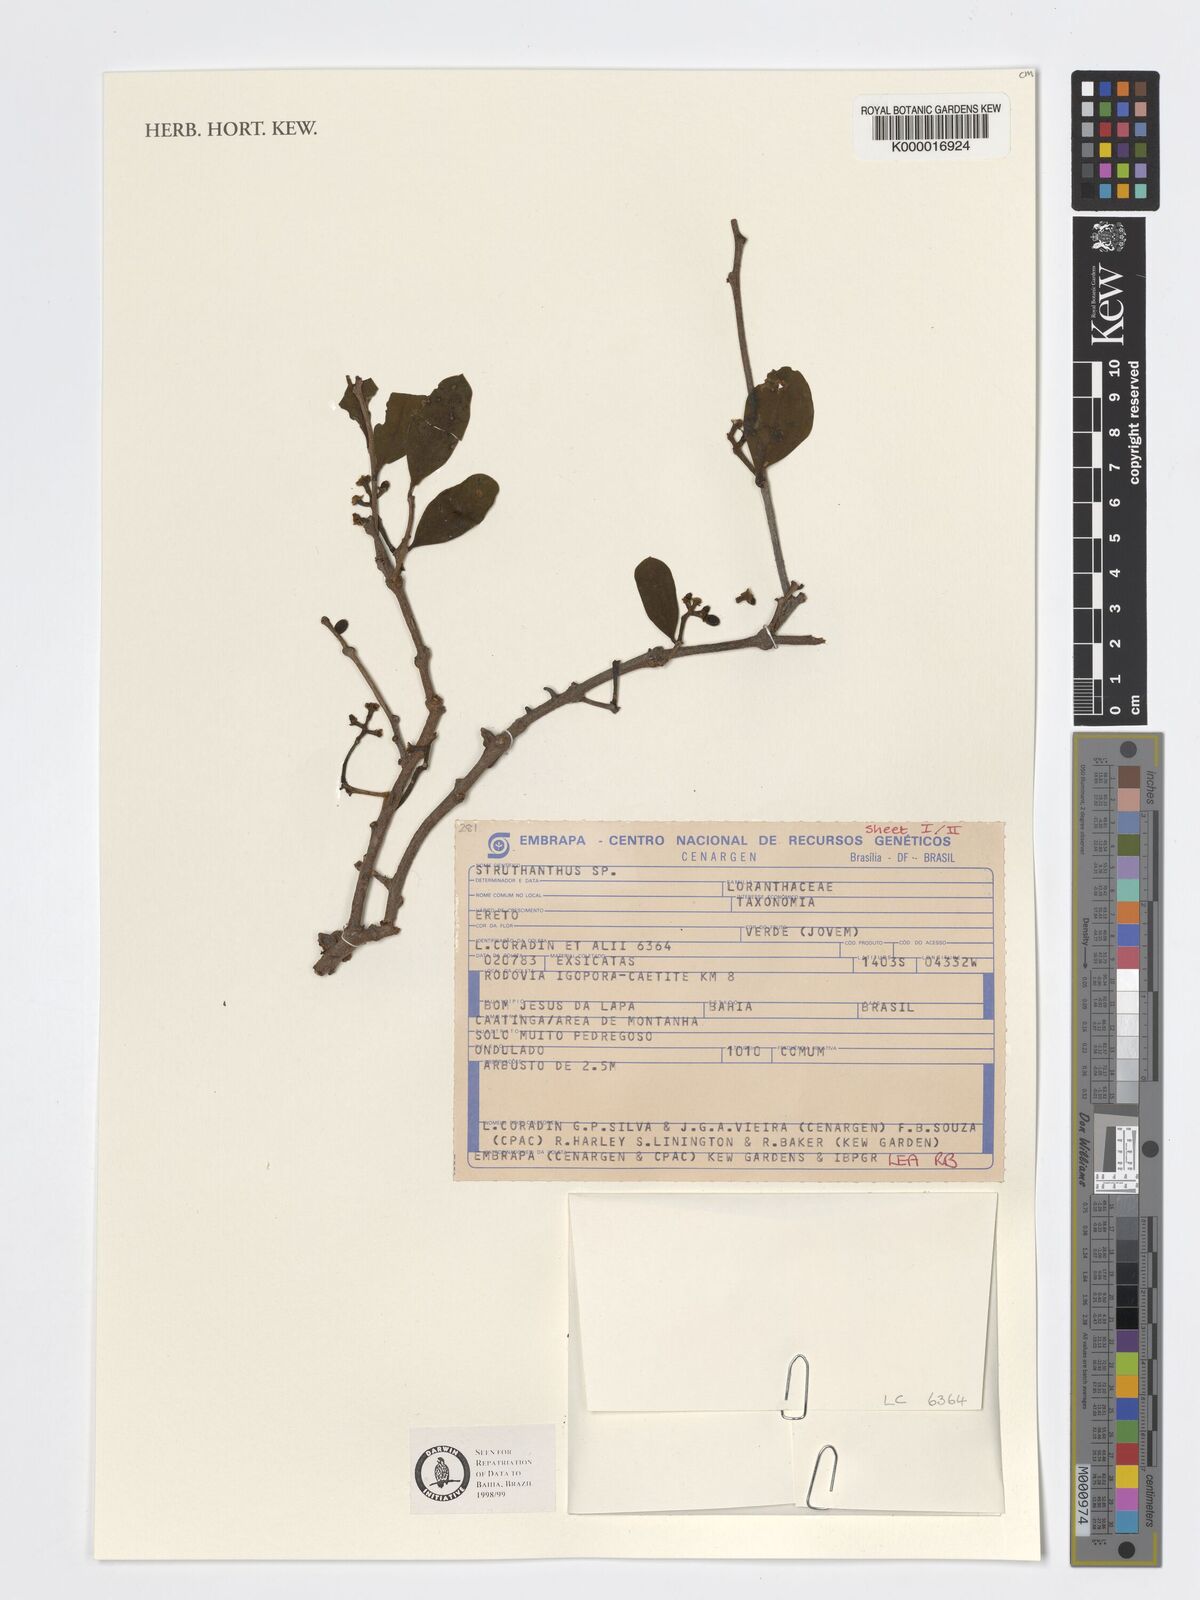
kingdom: Plantae
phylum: Tracheophyta
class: Magnoliopsida
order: Santalales
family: Loranthaceae
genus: Struthanthus
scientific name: Struthanthus
